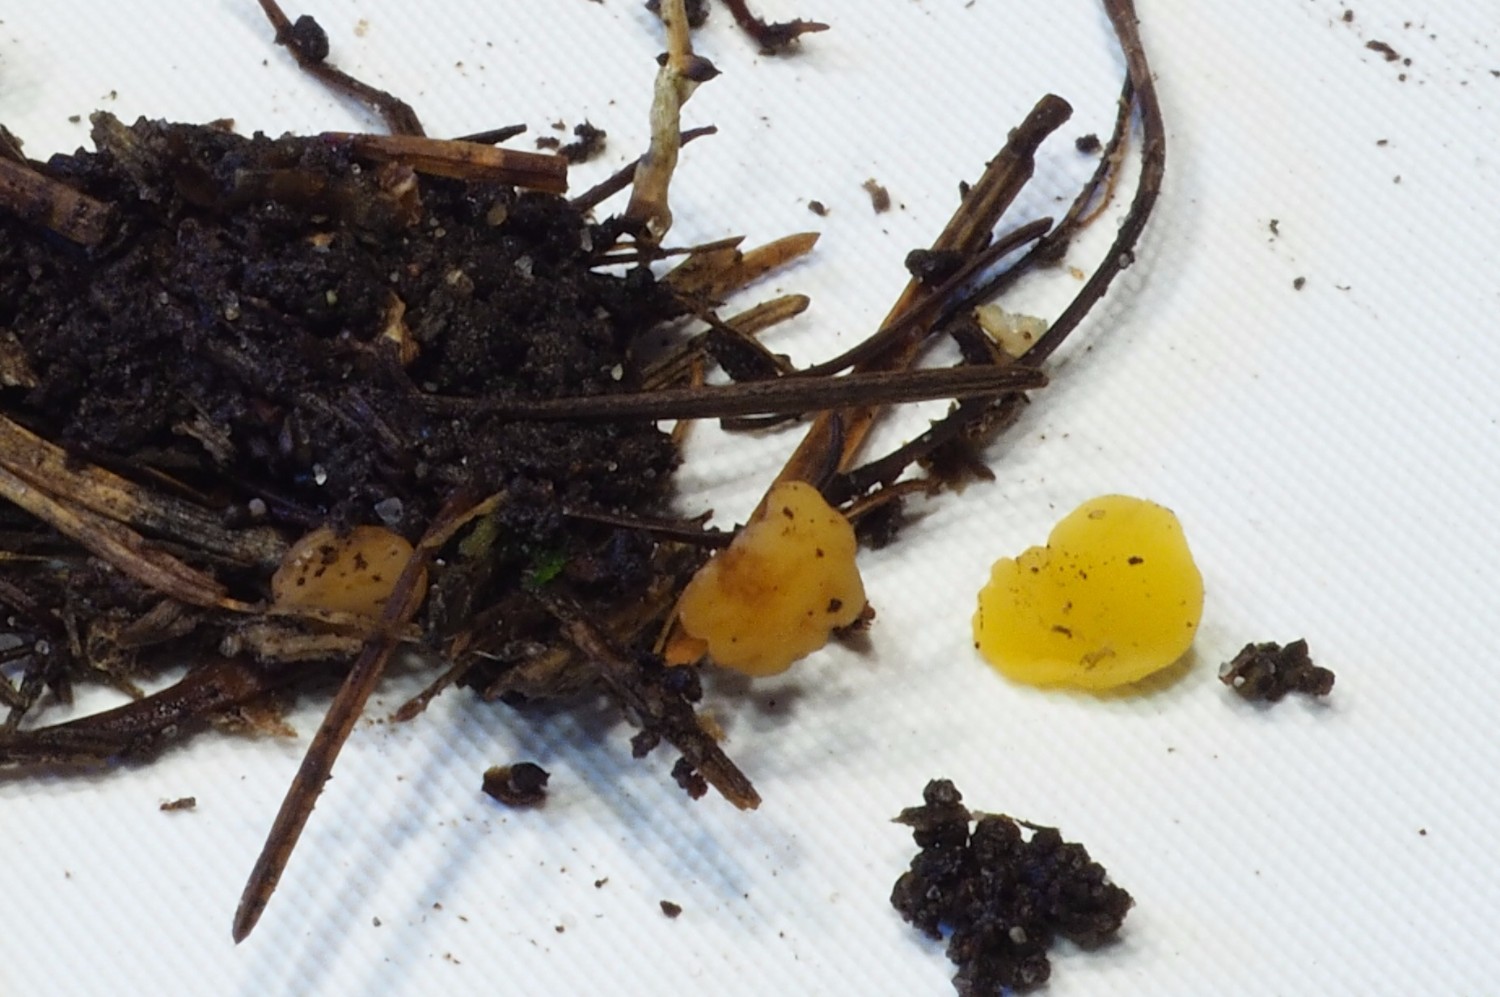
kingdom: Fungi
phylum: Ascomycota
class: Leotiomycetes
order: Helotiales
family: Helotiaceae
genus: Hymenoscyphus
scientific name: Hymenoscyphus calyculus
